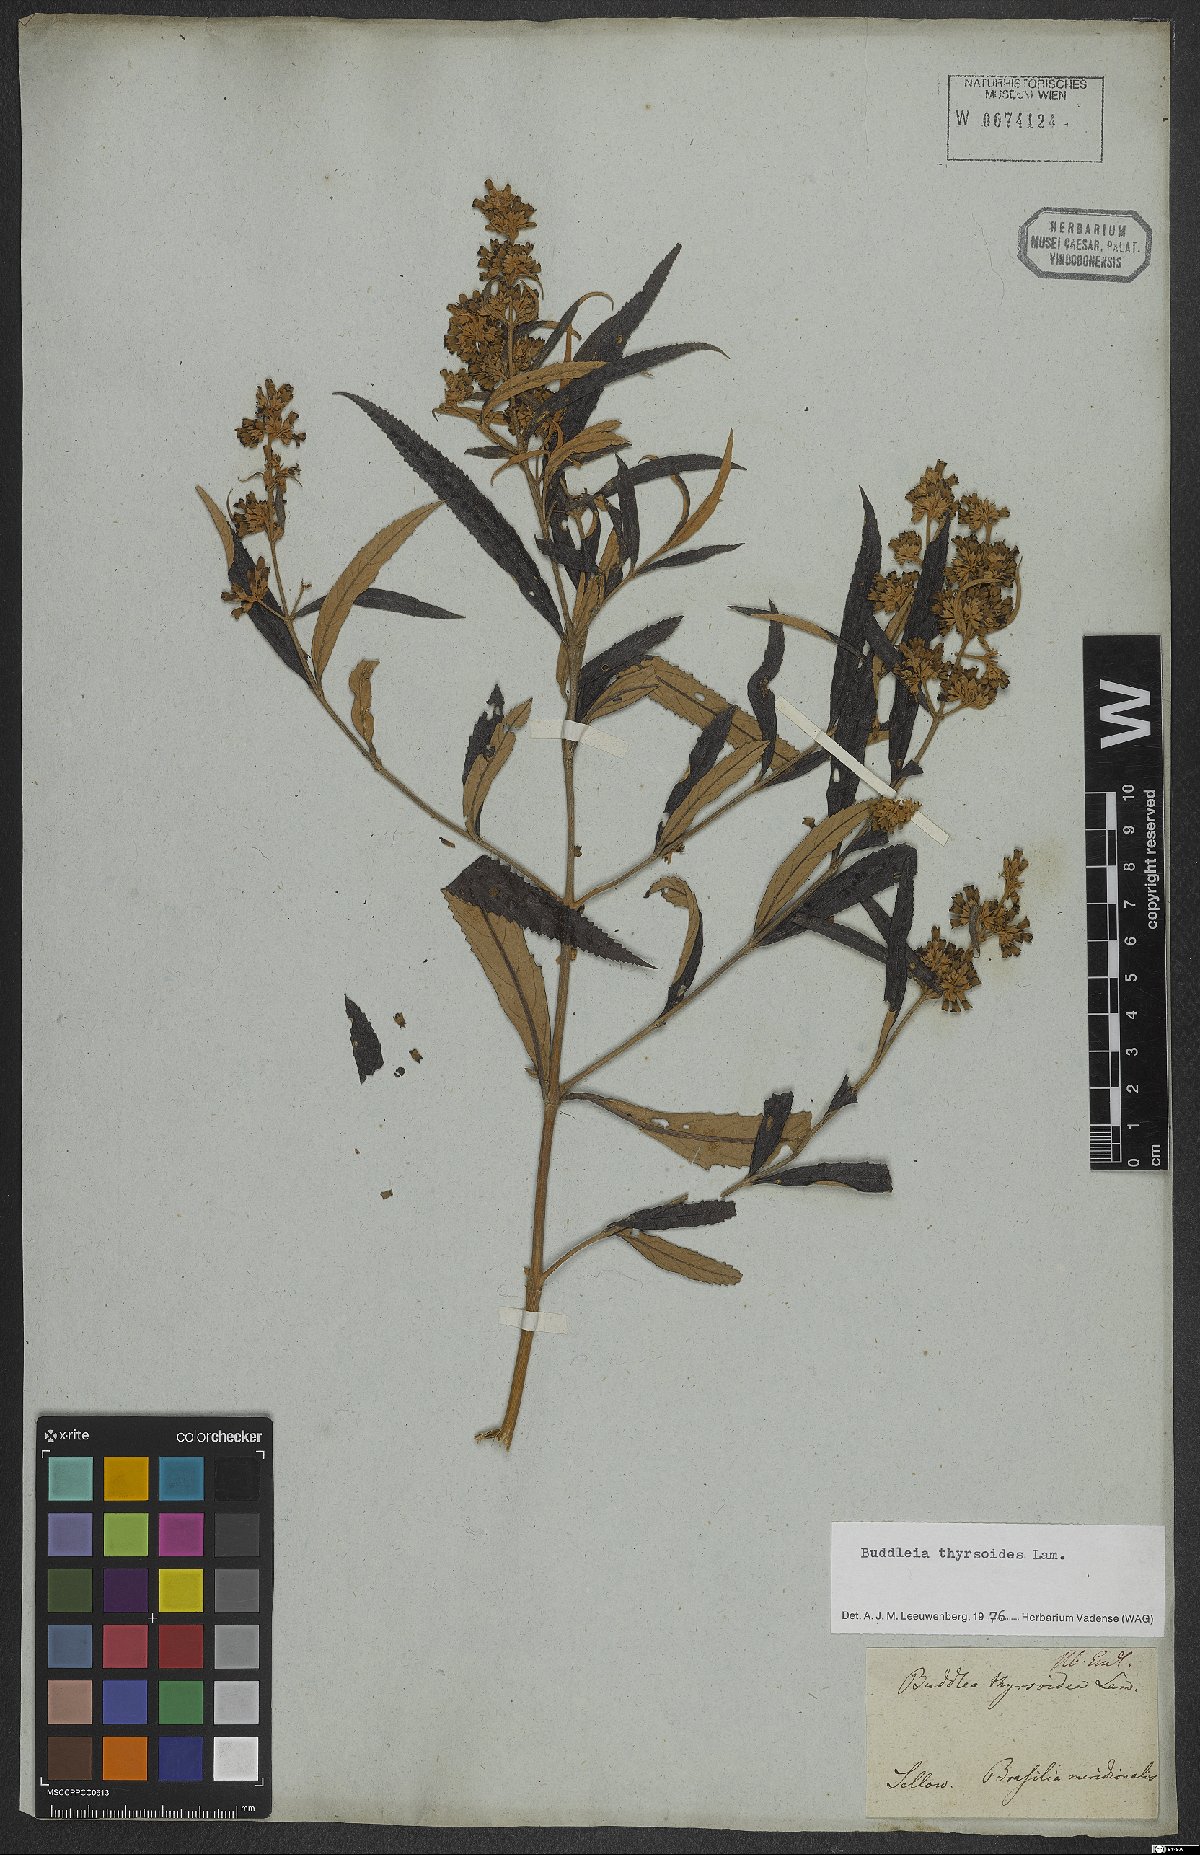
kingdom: Plantae
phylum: Tracheophyta
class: Magnoliopsida
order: Lamiales
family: Scrophulariaceae
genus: Buddleja
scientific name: Buddleja thyrsoides
